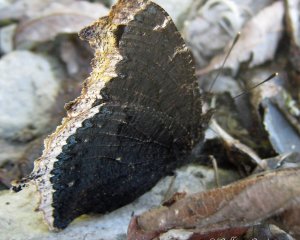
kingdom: Animalia
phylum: Arthropoda
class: Insecta
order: Lepidoptera
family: Nymphalidae
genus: Nymphalis
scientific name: Nymphalis antiopa
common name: Mourning Cloak
